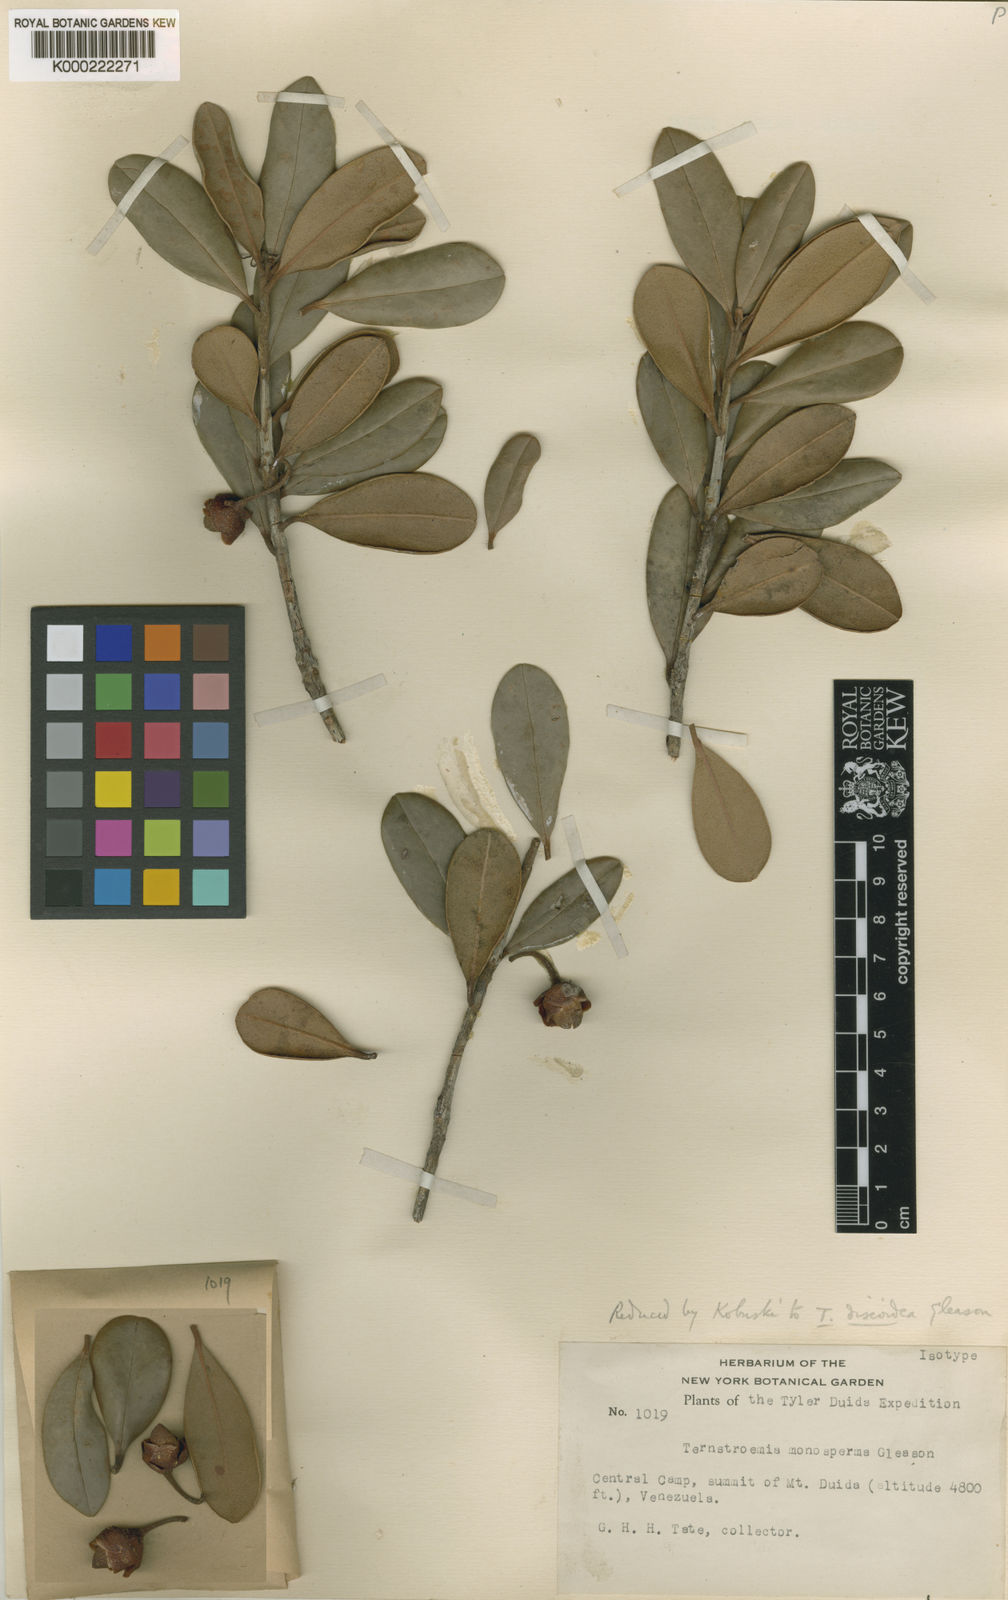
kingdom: Plantae
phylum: Tracheophyta
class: Magnoliopsida
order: Ericales
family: Pentaphylacaceae
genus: Ternstroemia
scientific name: Ternstroemia discoidea
